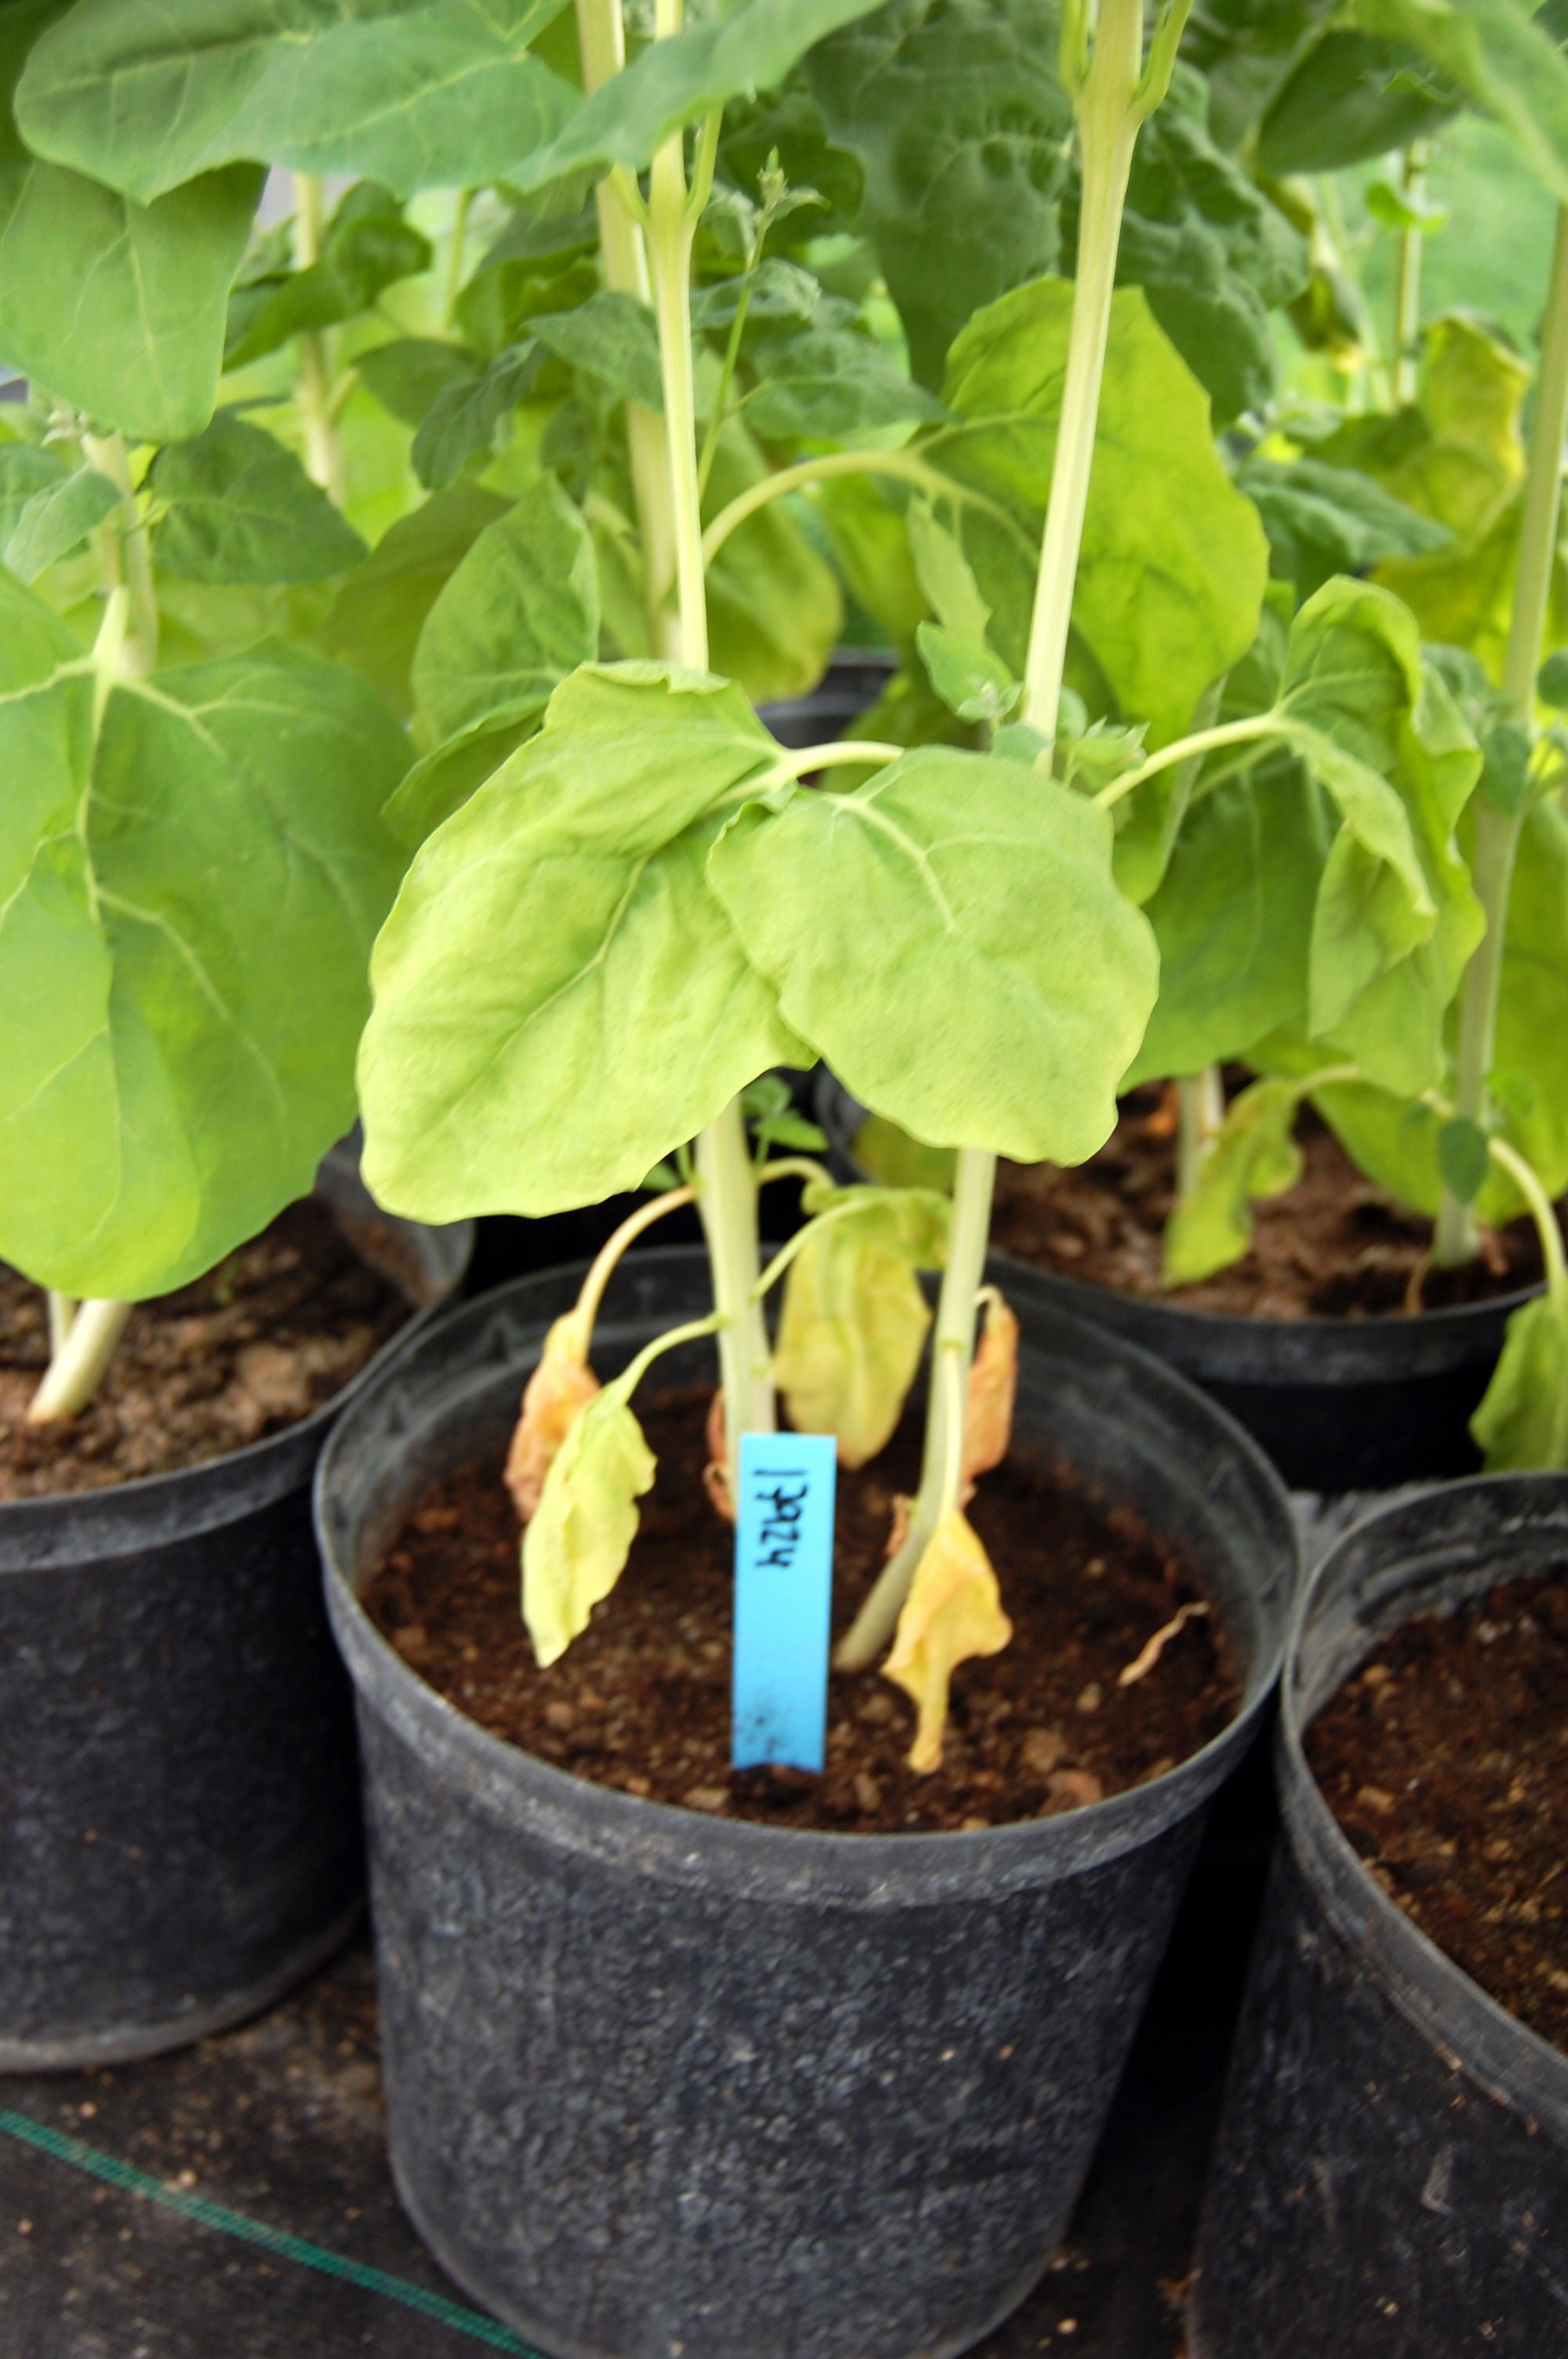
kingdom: Plantae
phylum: Tracheophyta
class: Magnoliopsida
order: Caryophyllales
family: Amaranthaceae
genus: Atriplex
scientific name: Atriplex hortensis
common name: Garden orache
